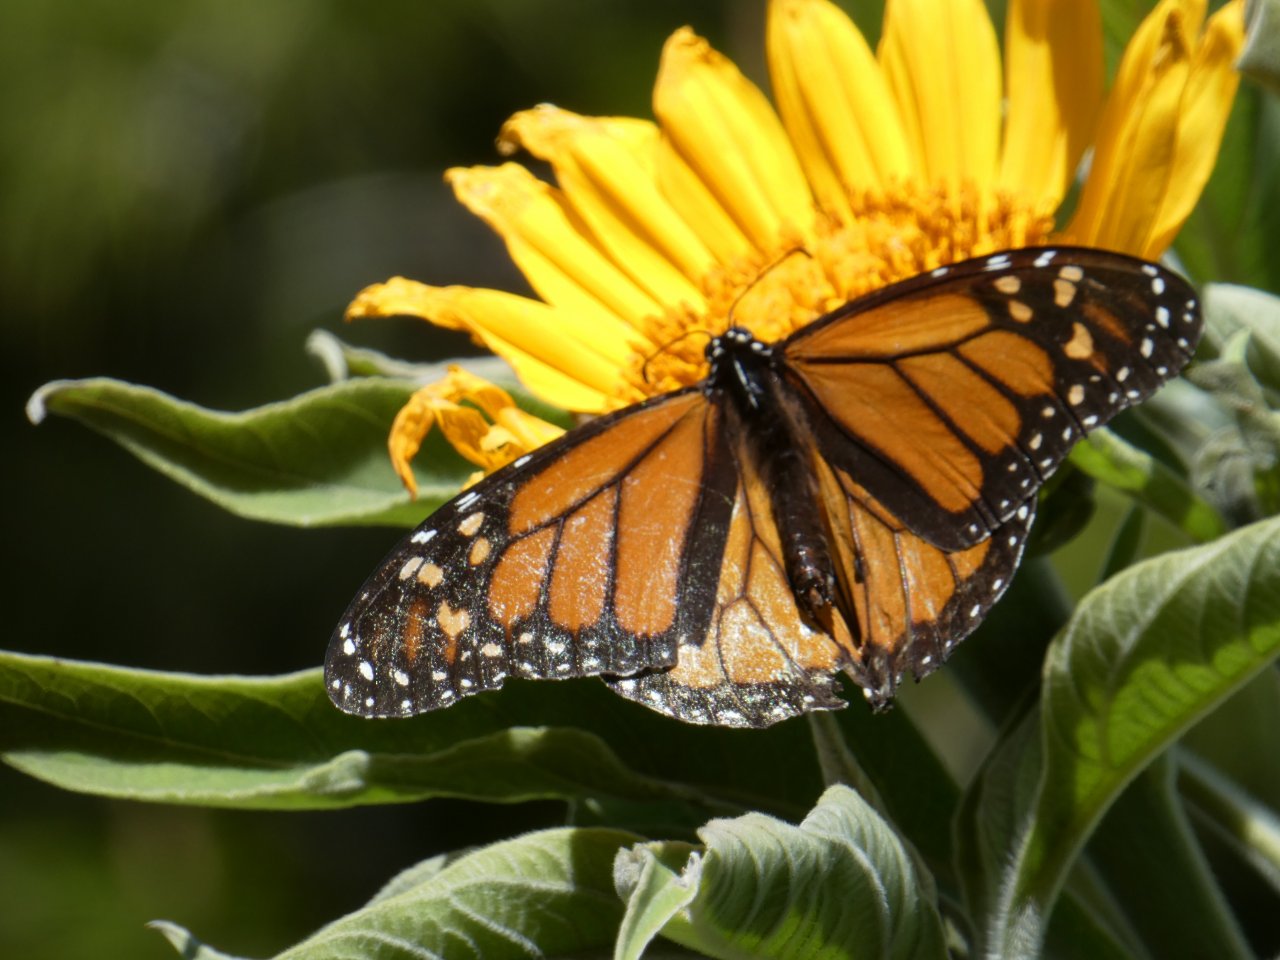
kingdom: Animalia
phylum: Arthropoda
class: Insecta
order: Lepidoptera
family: Nymphalidae
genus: Danaus
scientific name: Danaus plexippus
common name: Monarch
